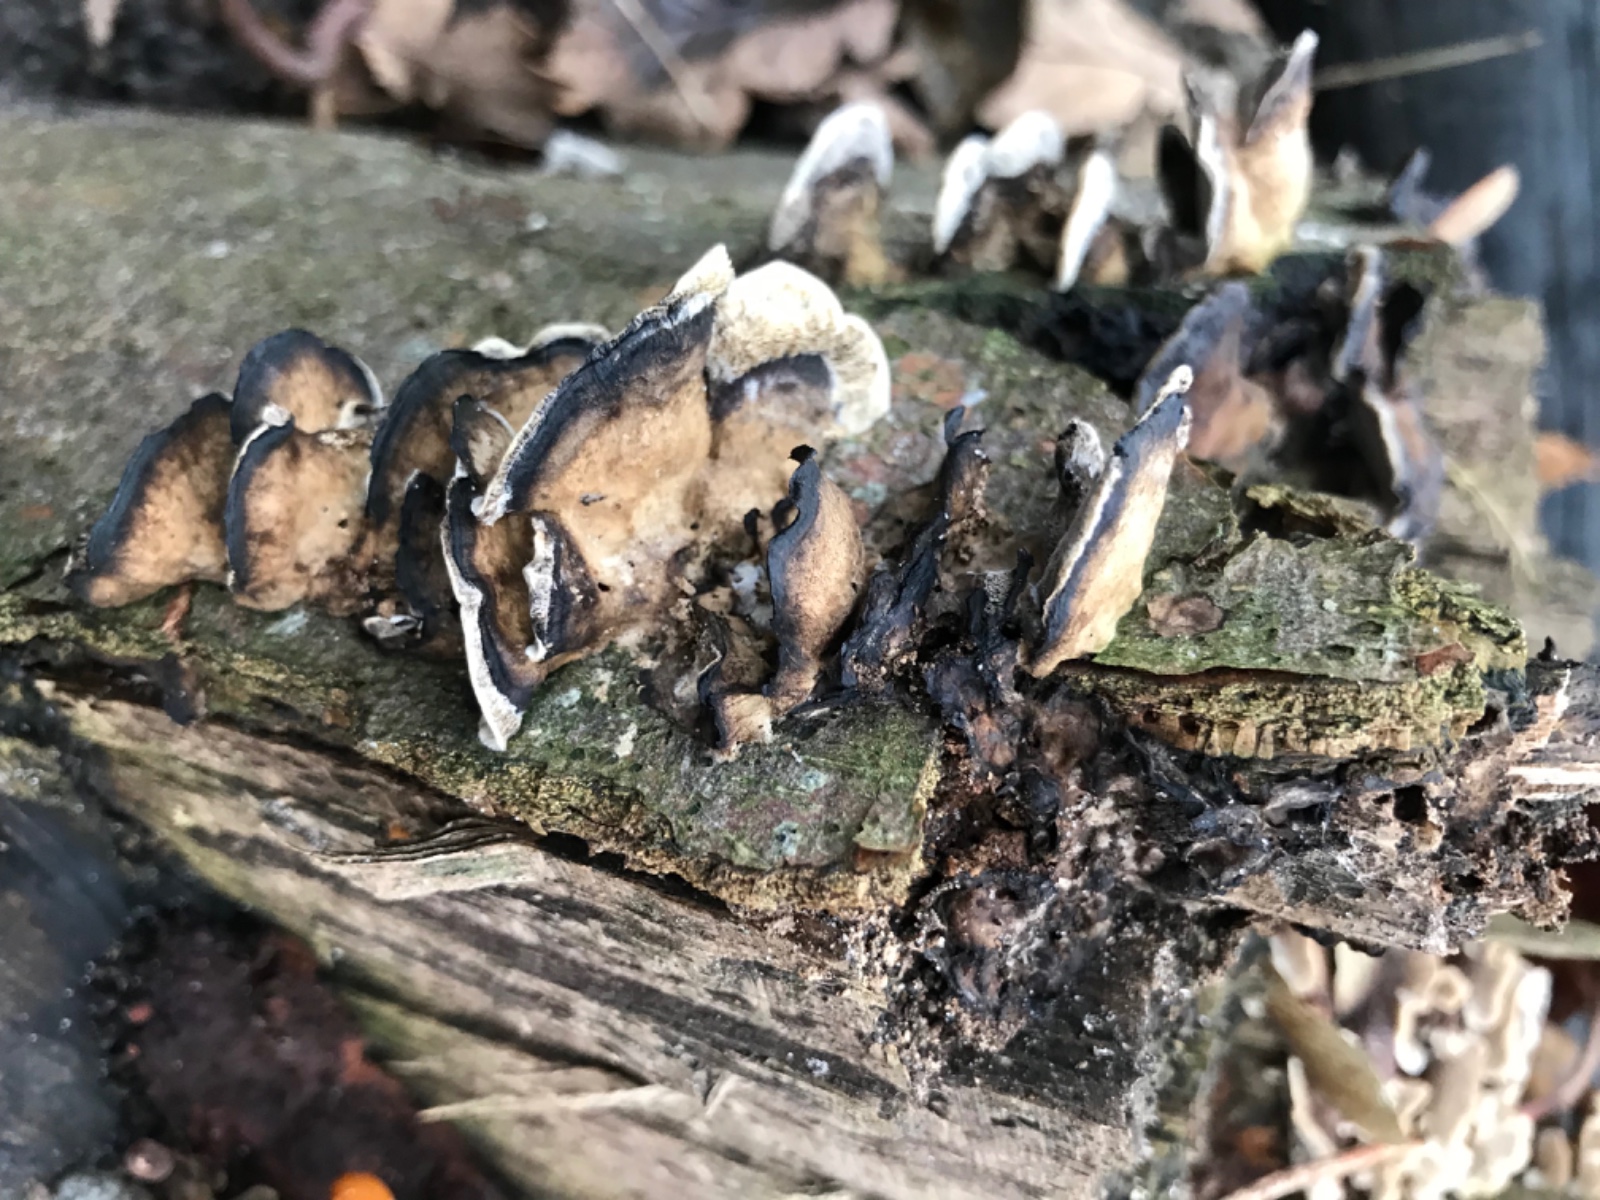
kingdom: Fungi
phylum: Basidiomycota
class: Agaricomycetes
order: Polyporales
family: Phanerochaetaceae
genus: Bjerkandera
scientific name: Bjerkandera adusta
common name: sveden sodporesvamp
